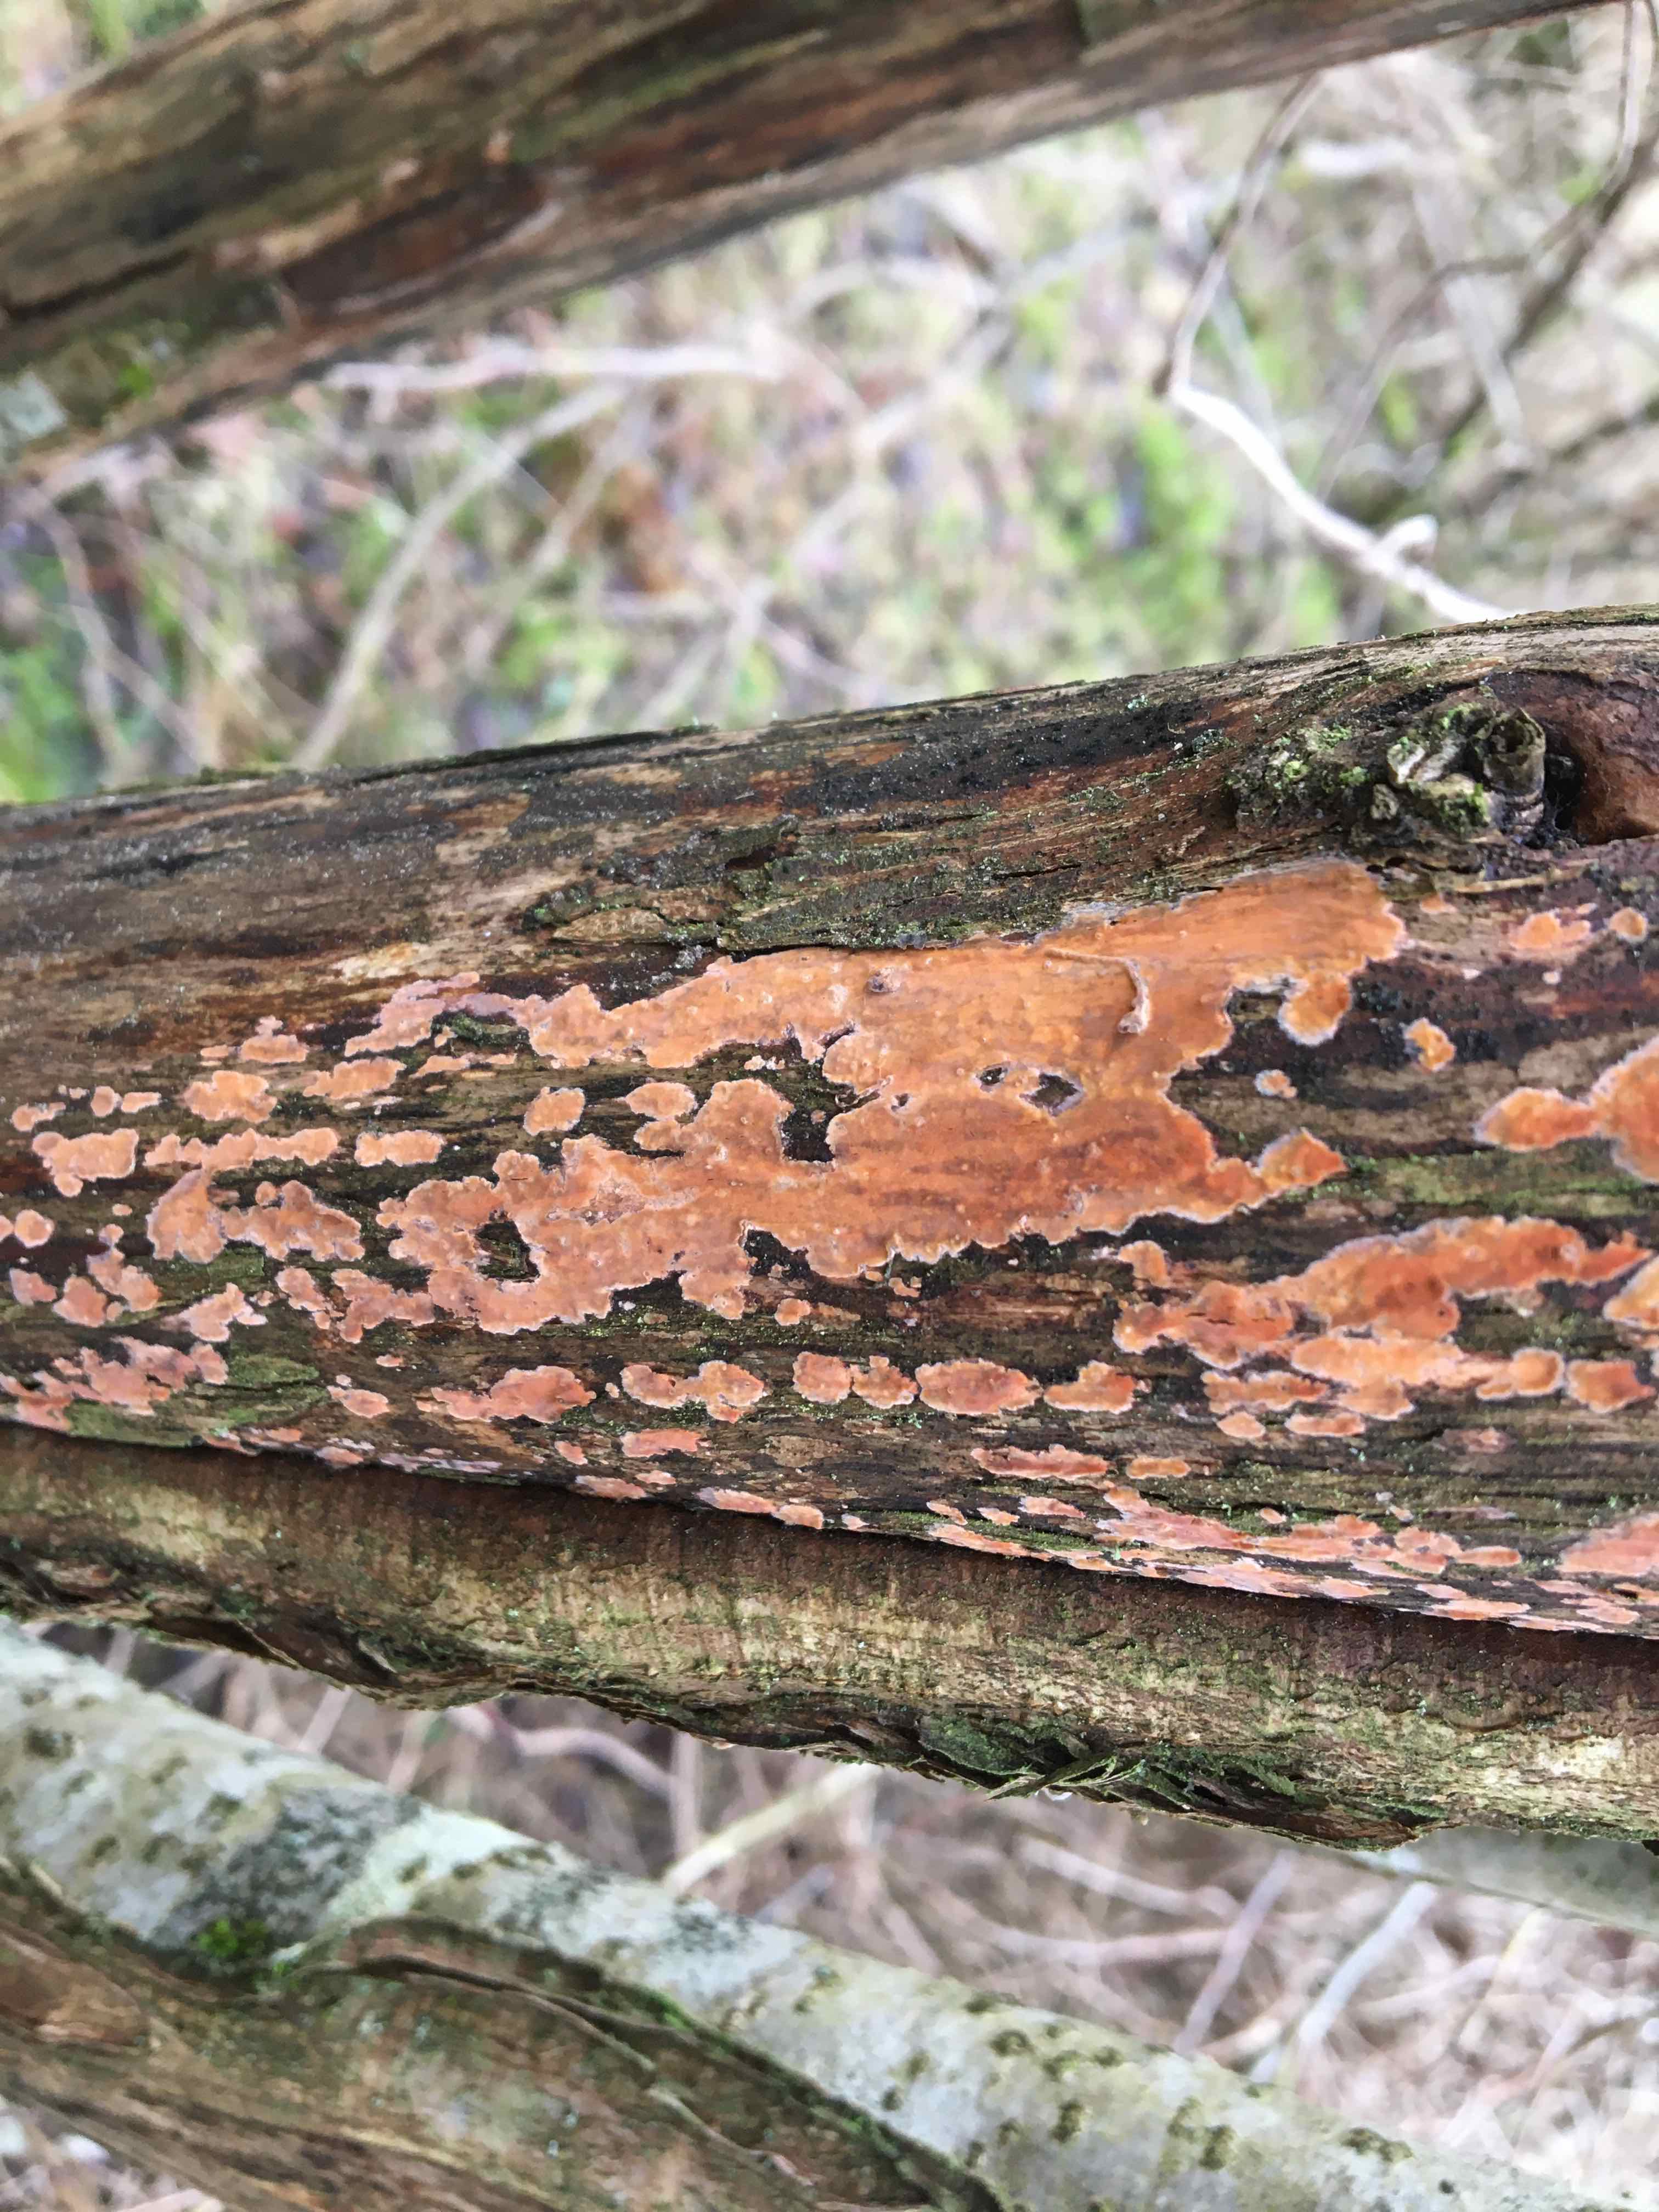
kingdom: Fungi
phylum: Basidiomycota
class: Agaricomycetes
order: Russulales
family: Peniophoraceae
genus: Peniophora
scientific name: Peniophora incarnata
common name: laksefarvet voksskind
